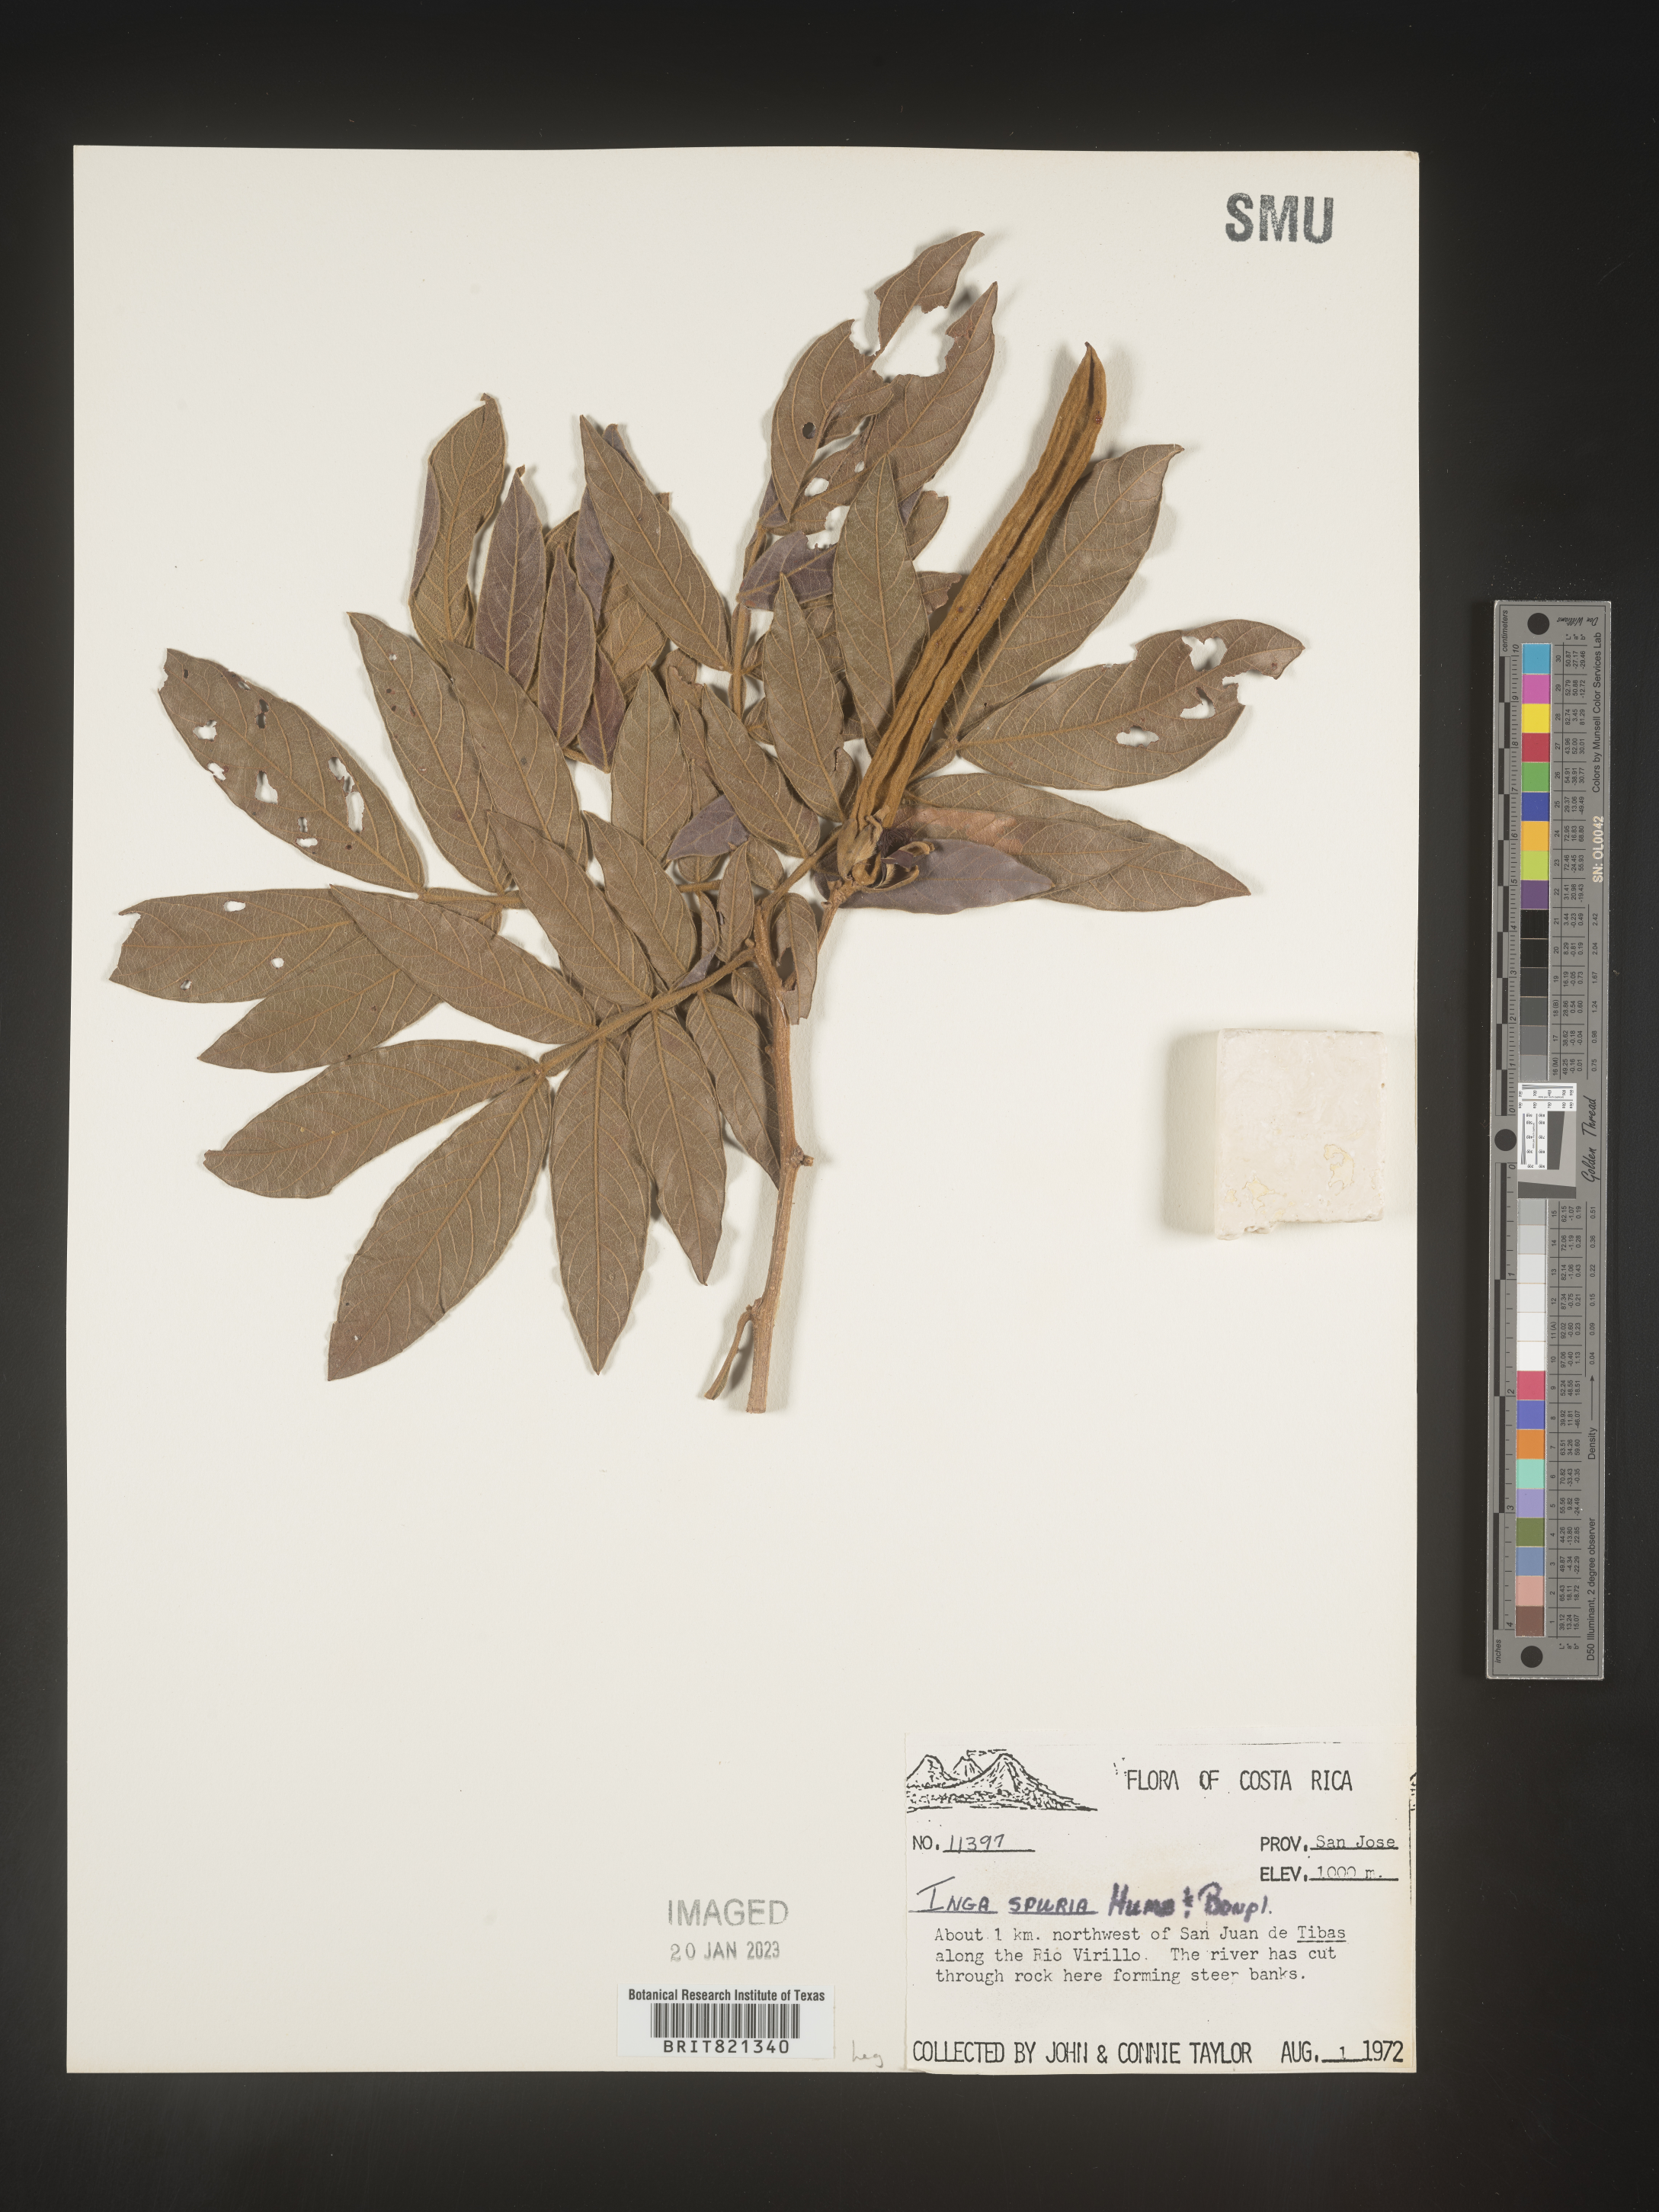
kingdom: Plantae
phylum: Tracheophyta
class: Magnoliopsida
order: Fabales
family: Fabaceae
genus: Inga
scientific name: Inga
